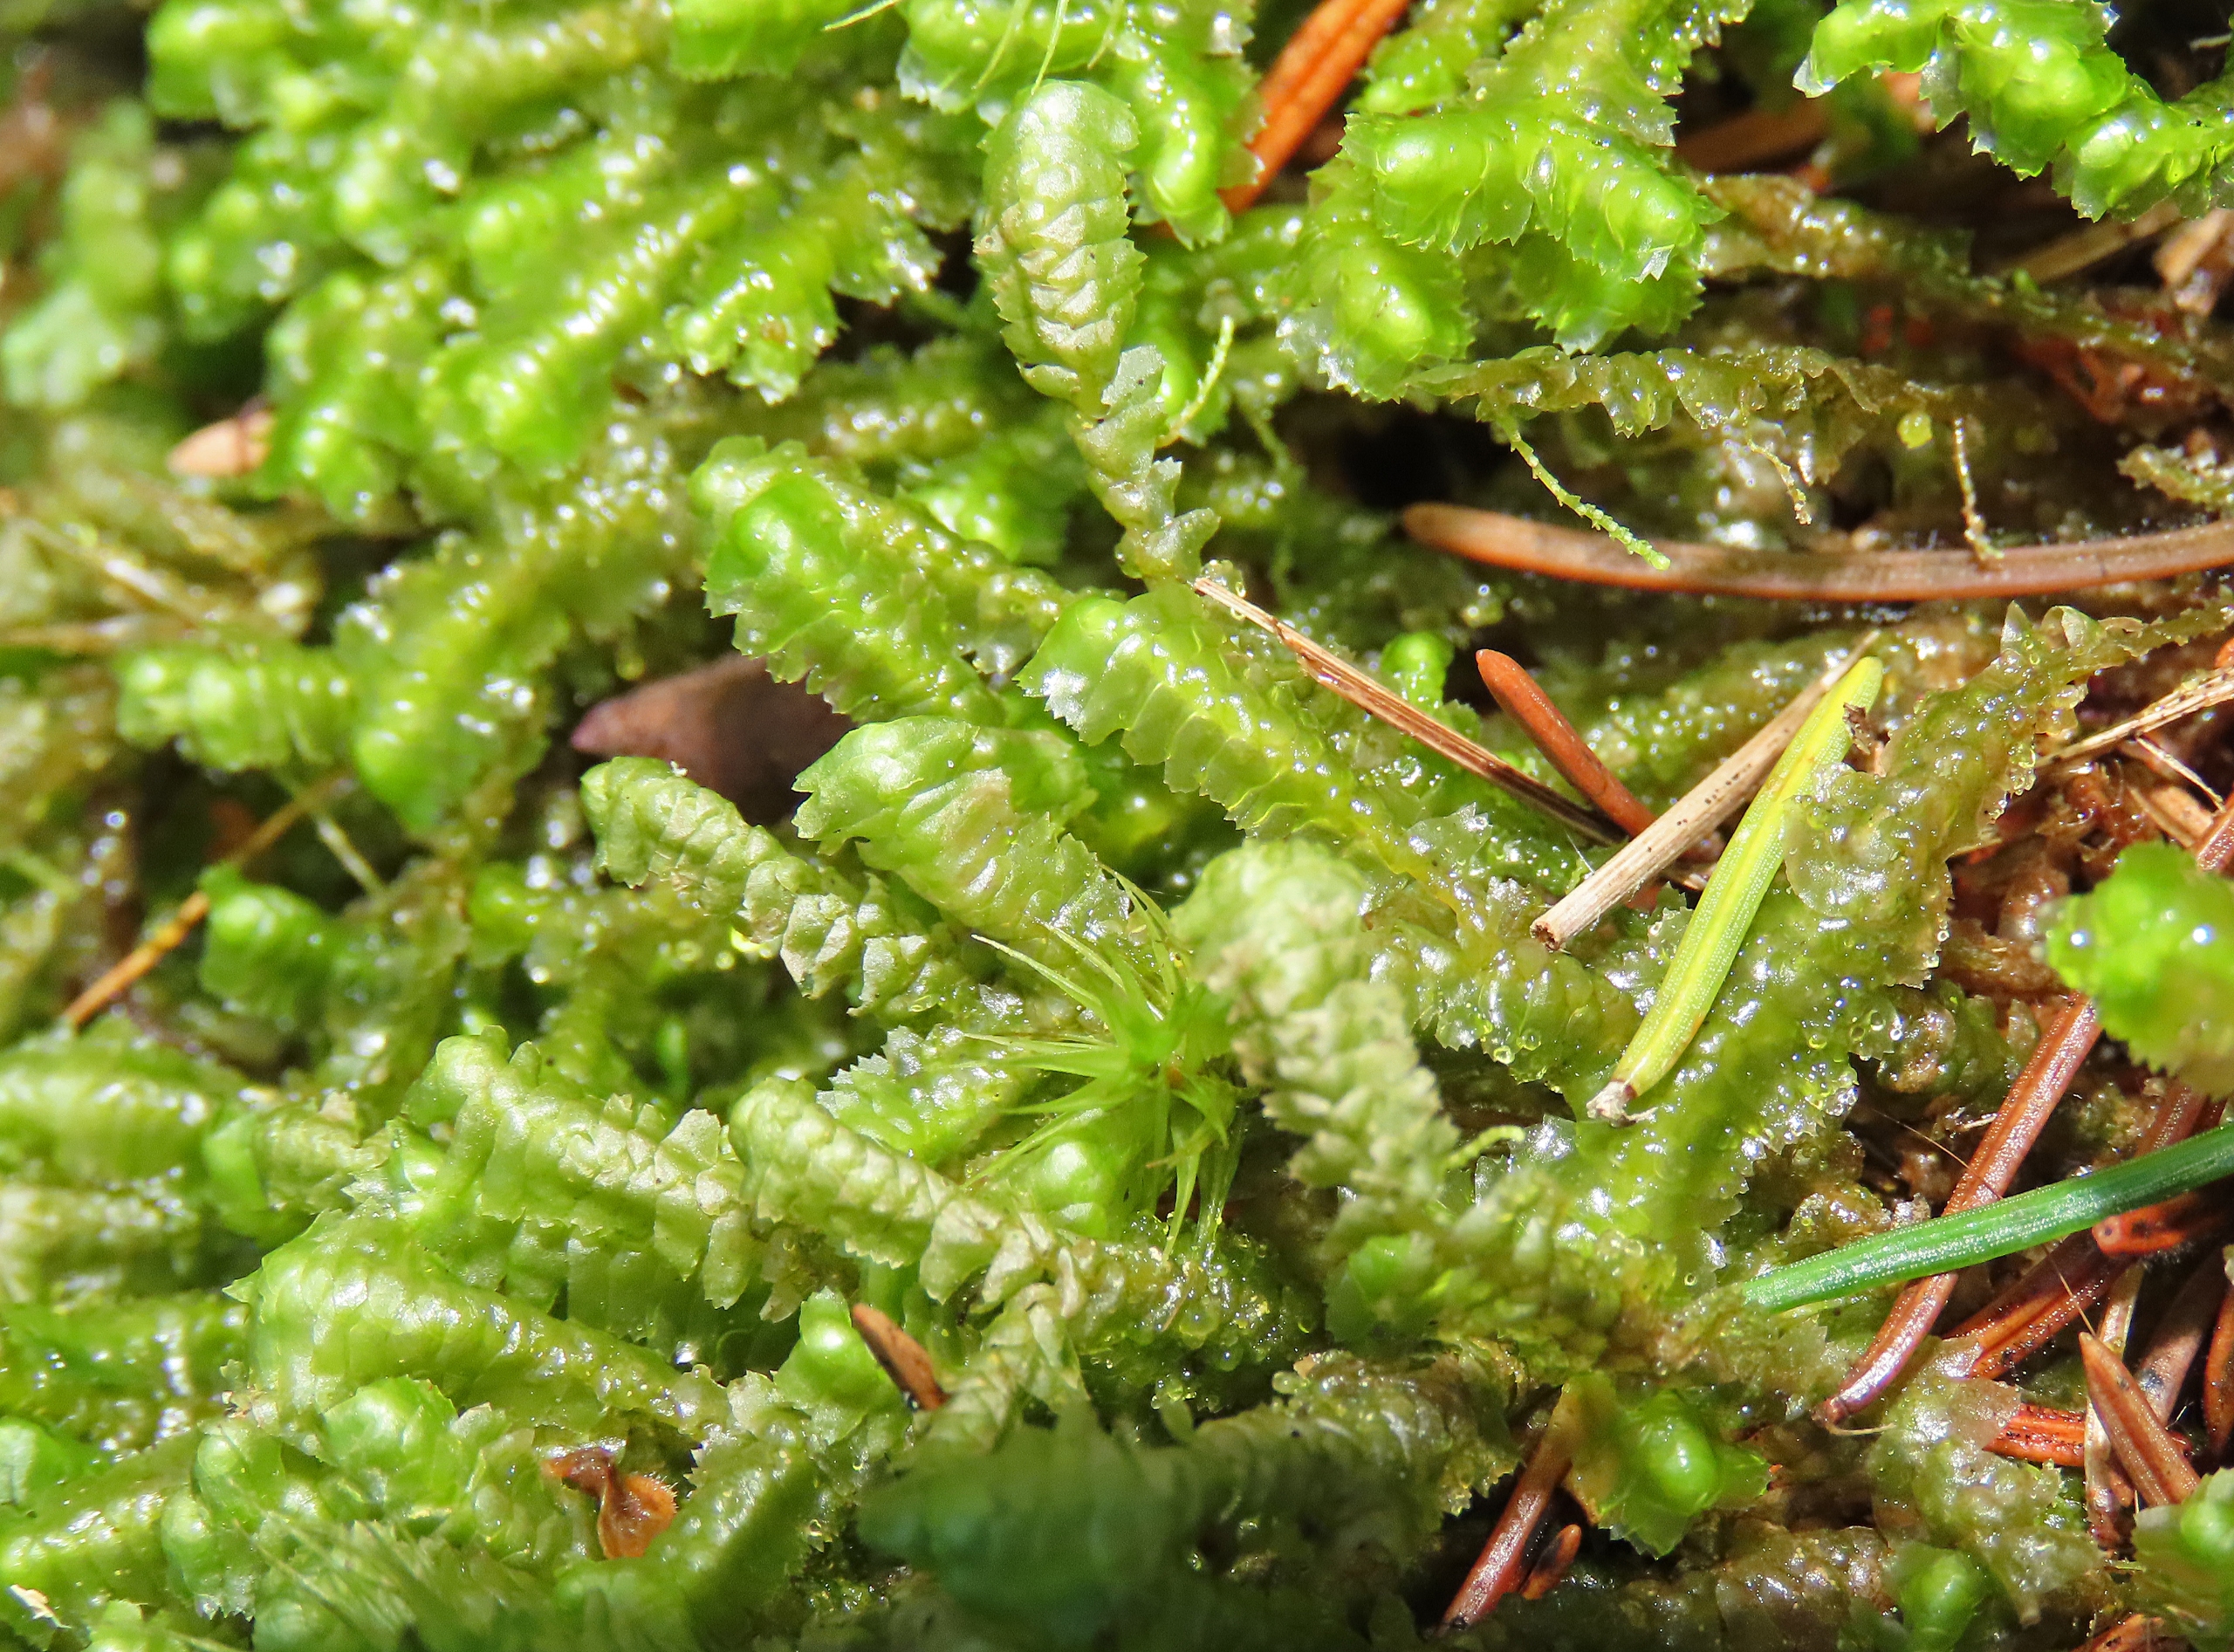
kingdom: Plantae
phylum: Marchantiophyta
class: Jungermanniopsida
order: Jungermanniales
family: Lepidoziaceae
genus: Bazzania
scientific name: Bazzania trilobata
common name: Stor styltemos
